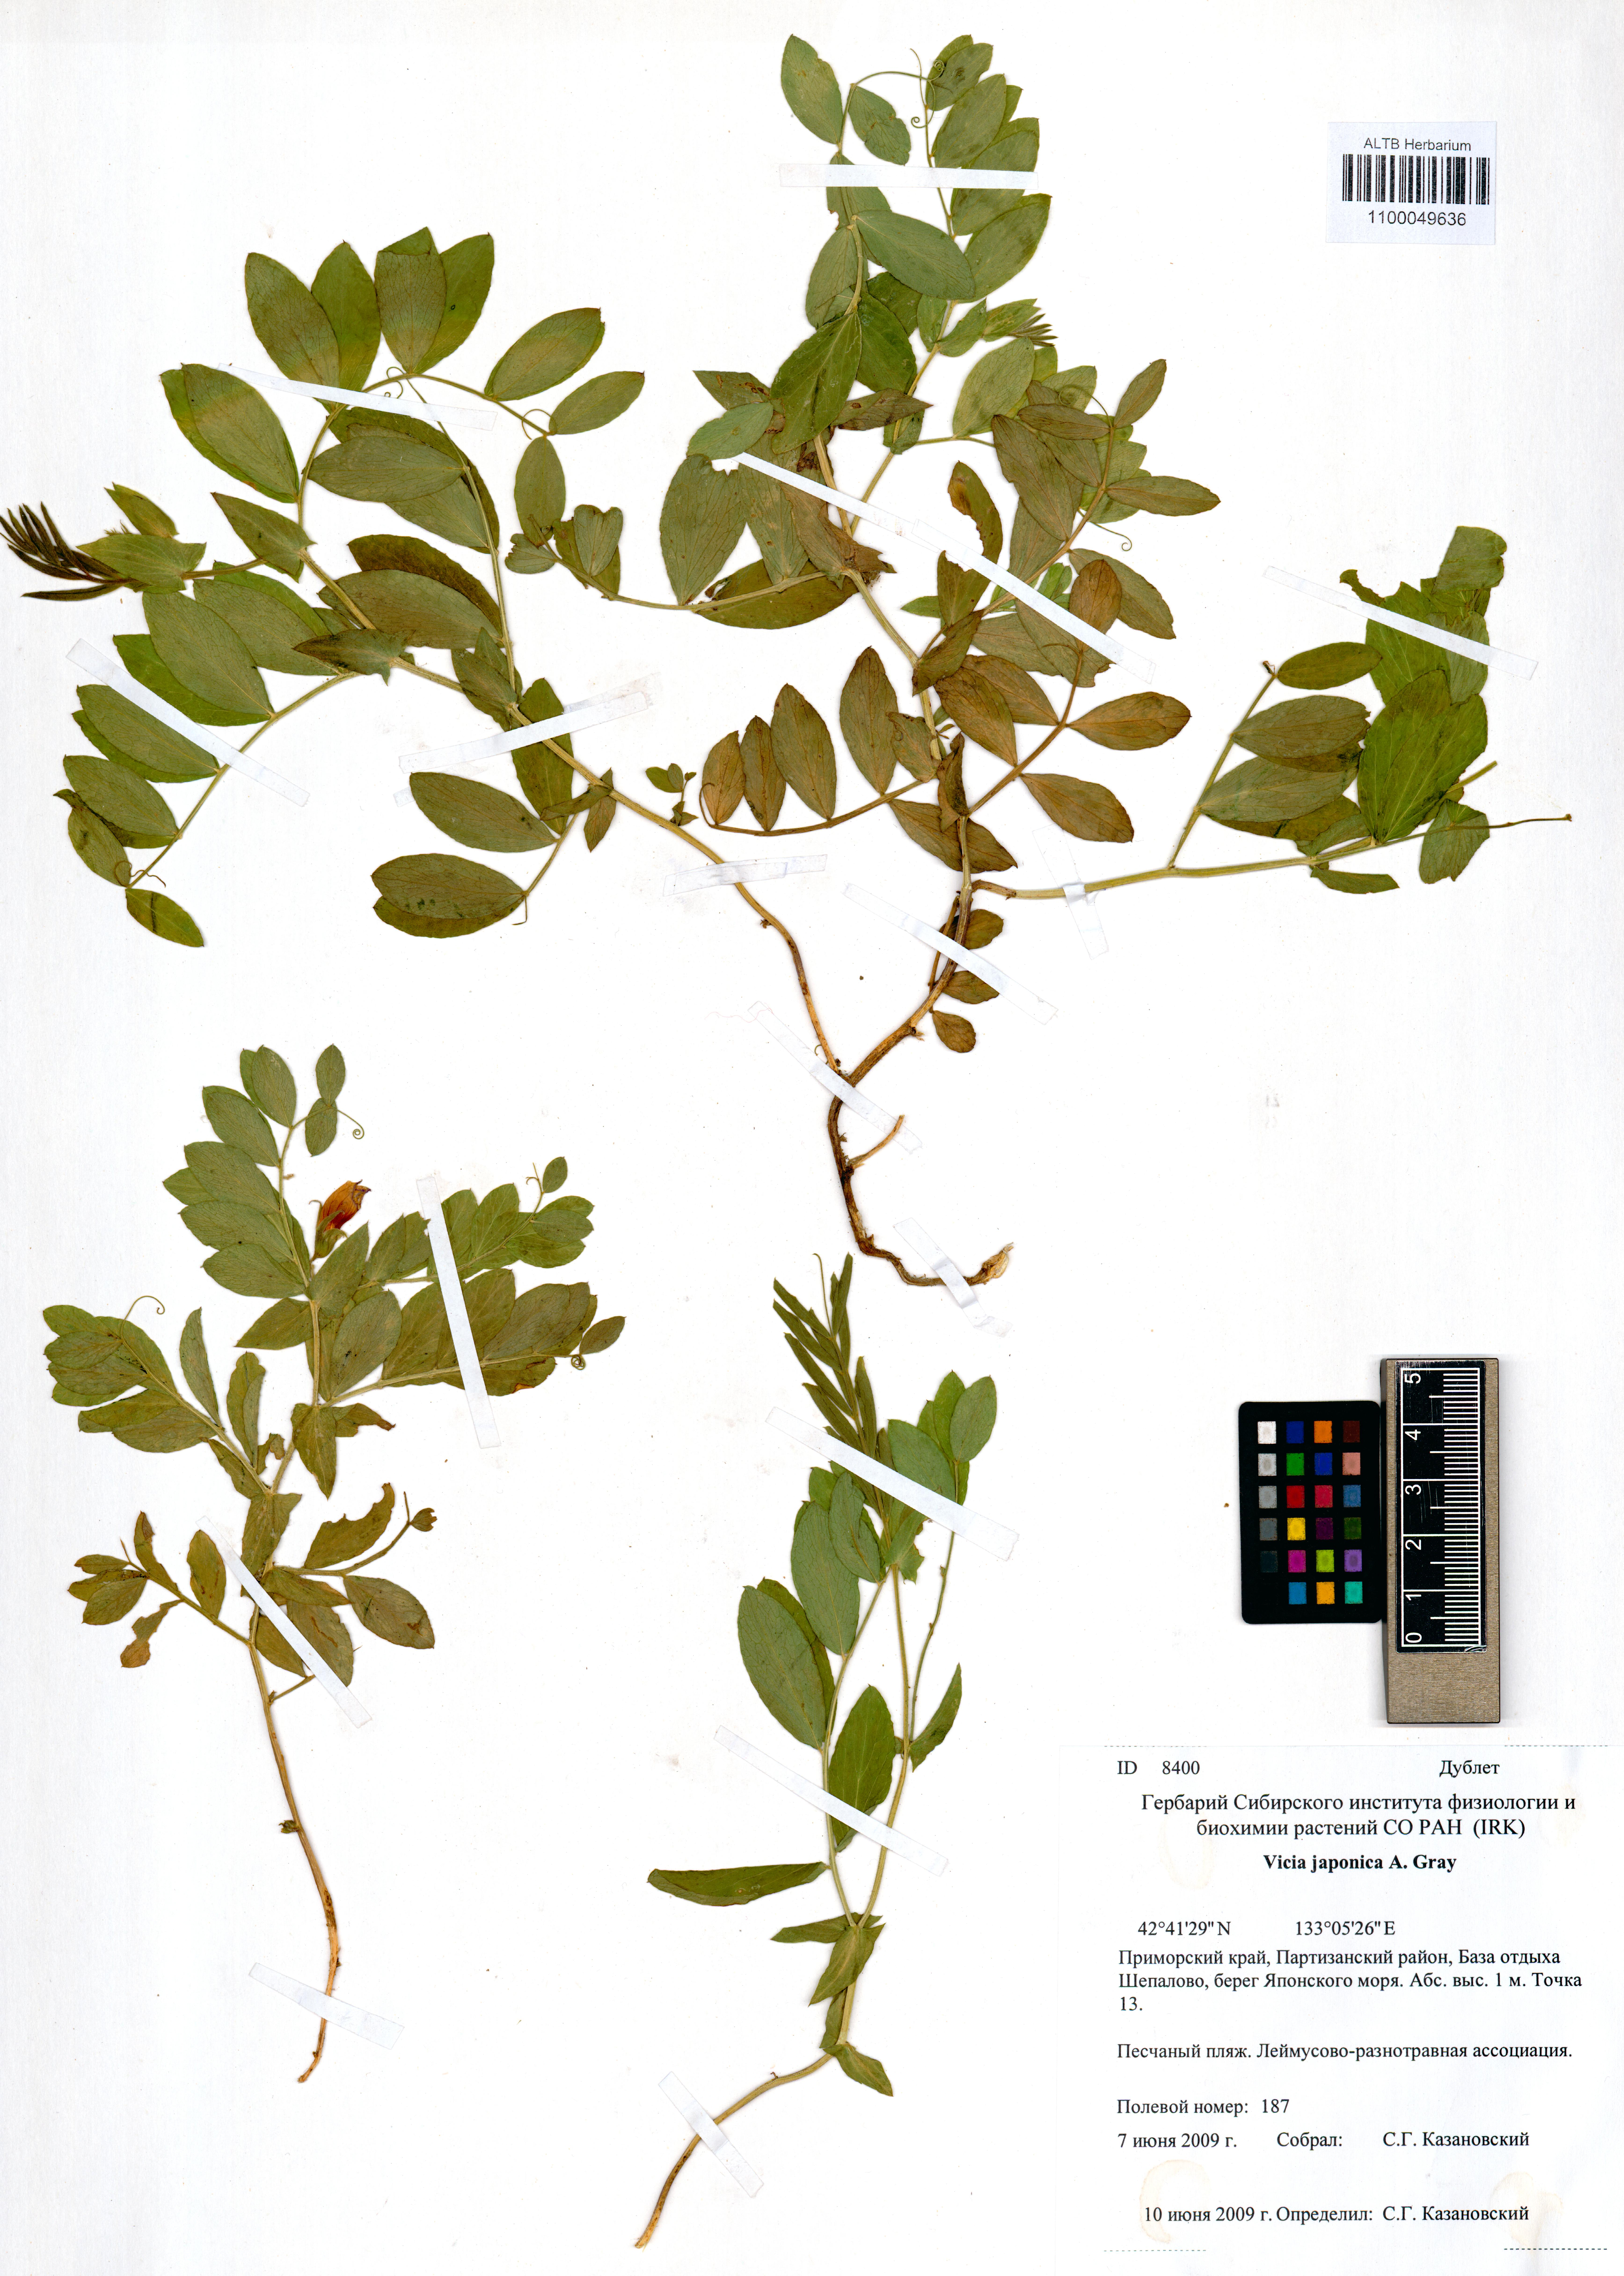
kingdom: Plantae
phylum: Tracheophyta
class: Magnoliopsida
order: Fabales
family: Fabaceae
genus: Vicia
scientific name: Vicia japonica
